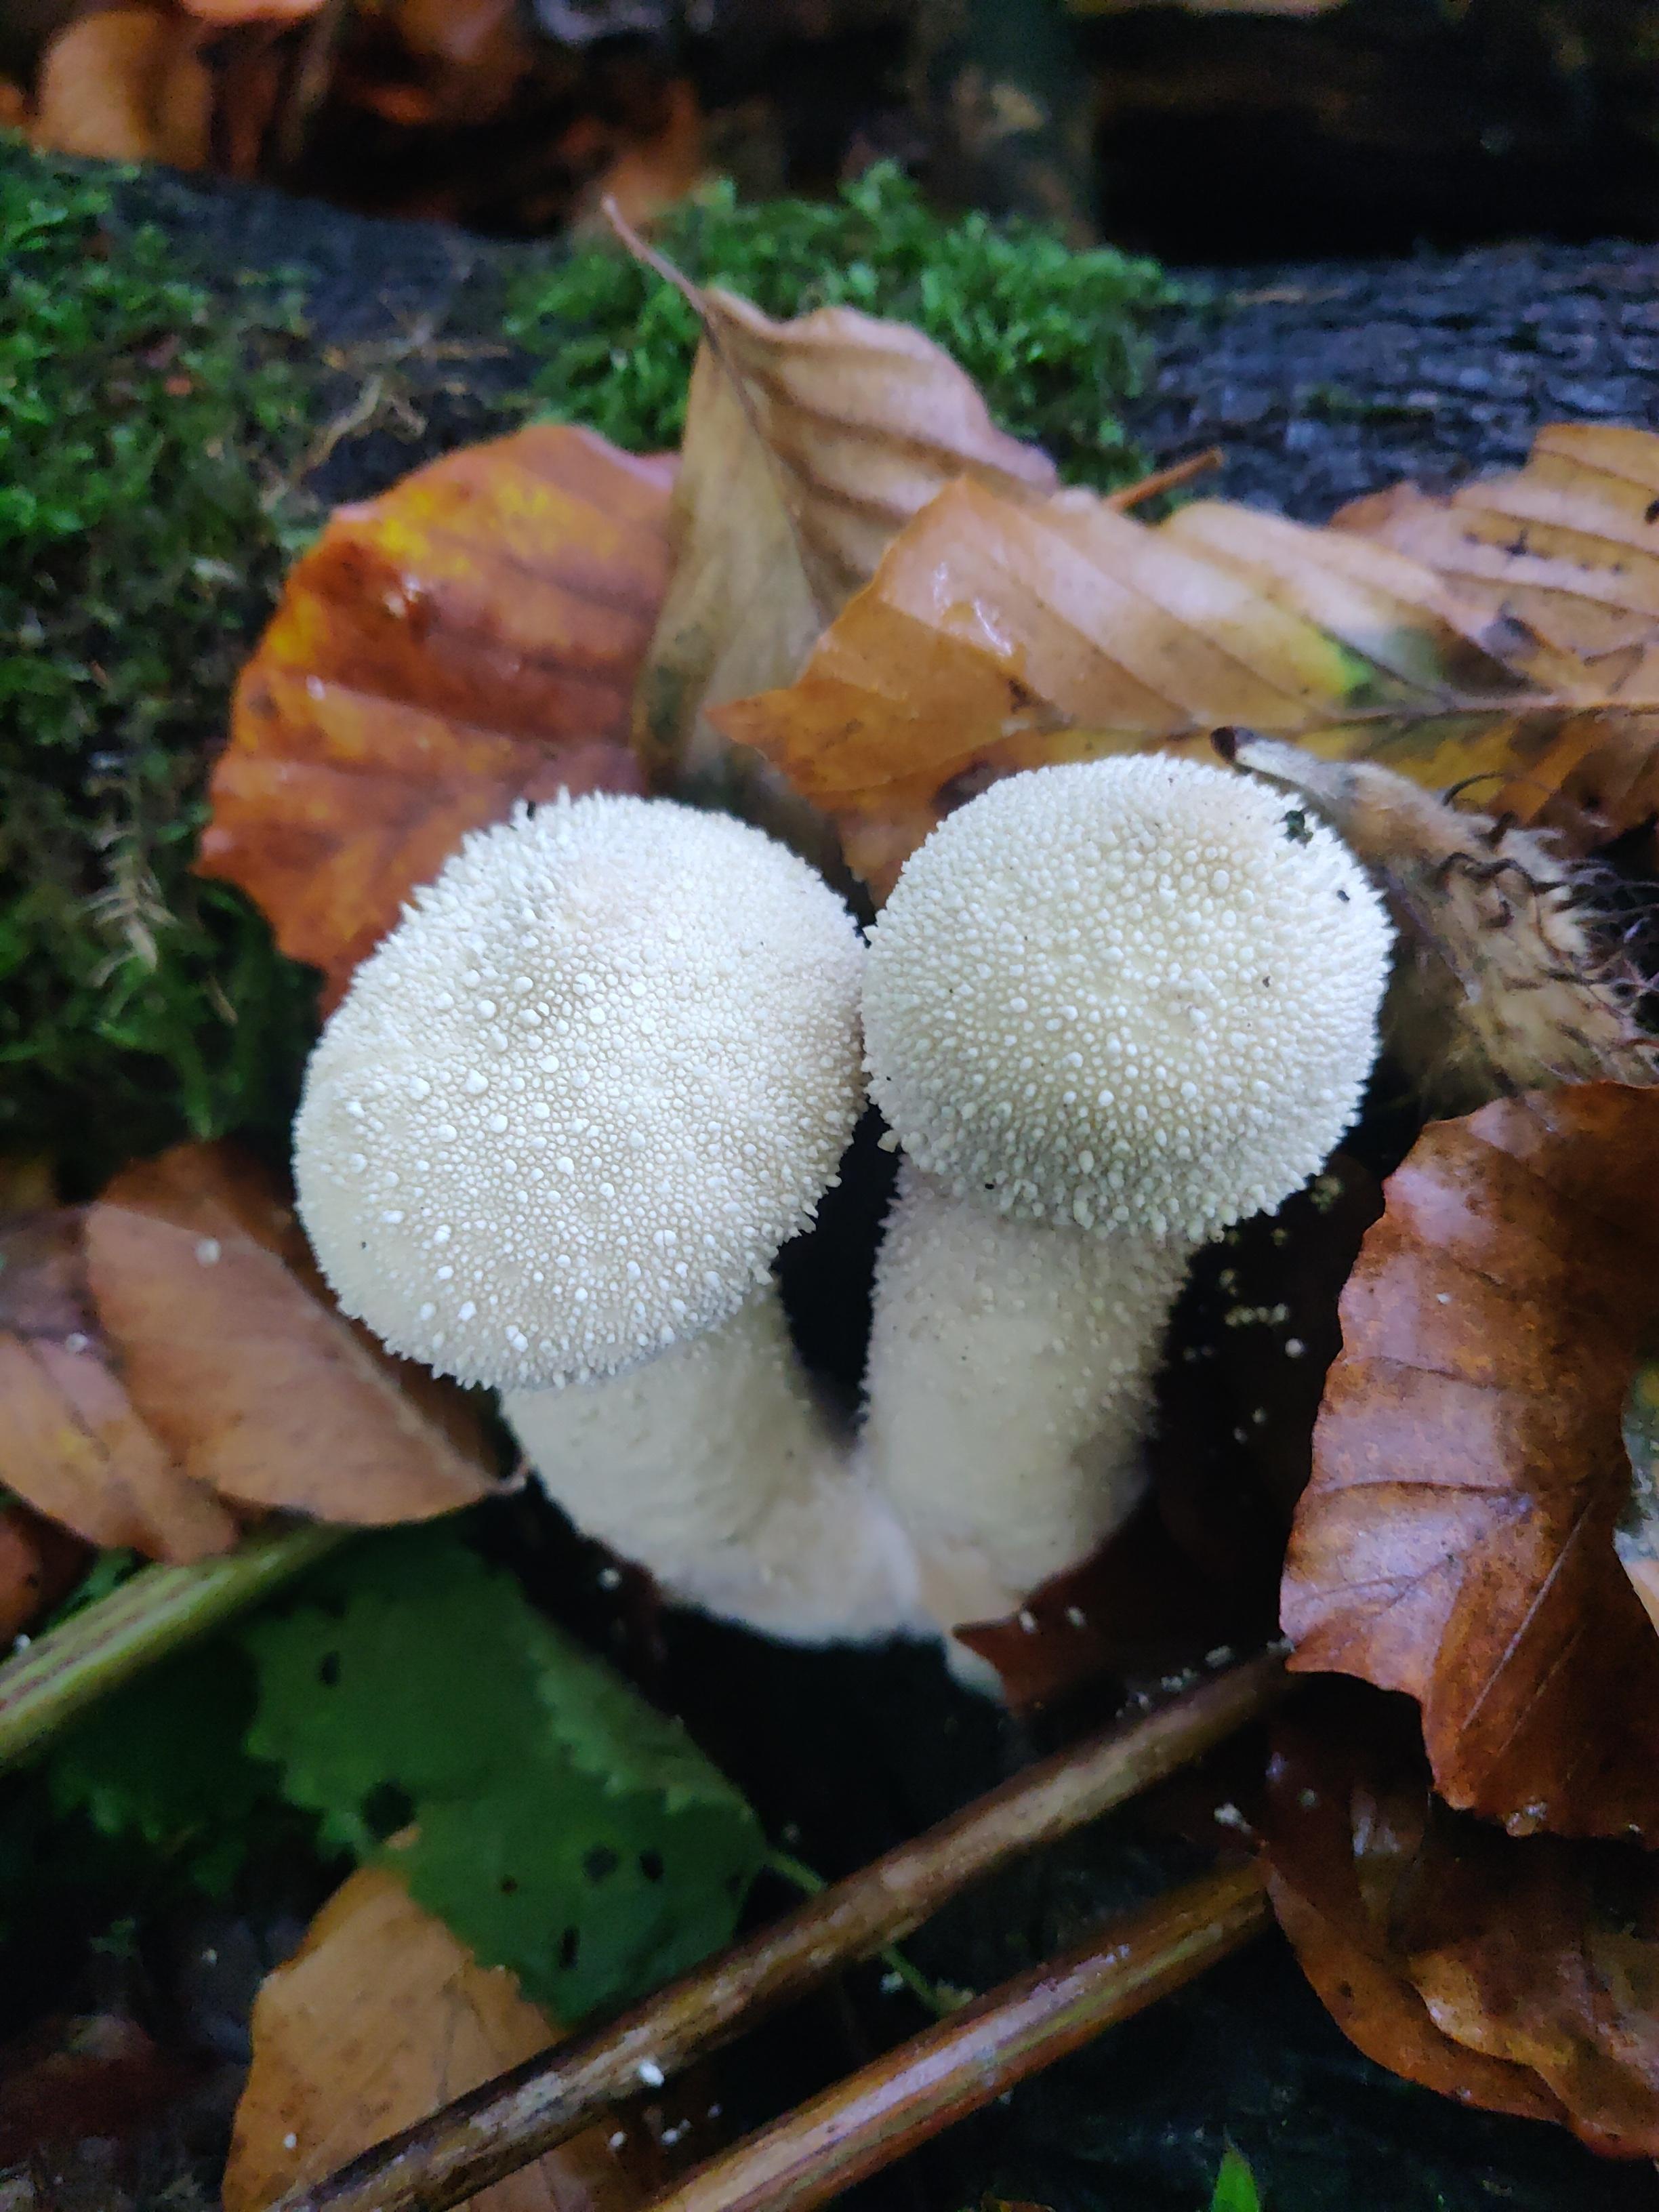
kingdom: Fungi
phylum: Basidiomycota
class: Agaricomycetes
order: Agaricales
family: Lycoperdaceae
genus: Lycoperdon
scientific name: Lycoperdon perlatum
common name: krystal-støvbold
